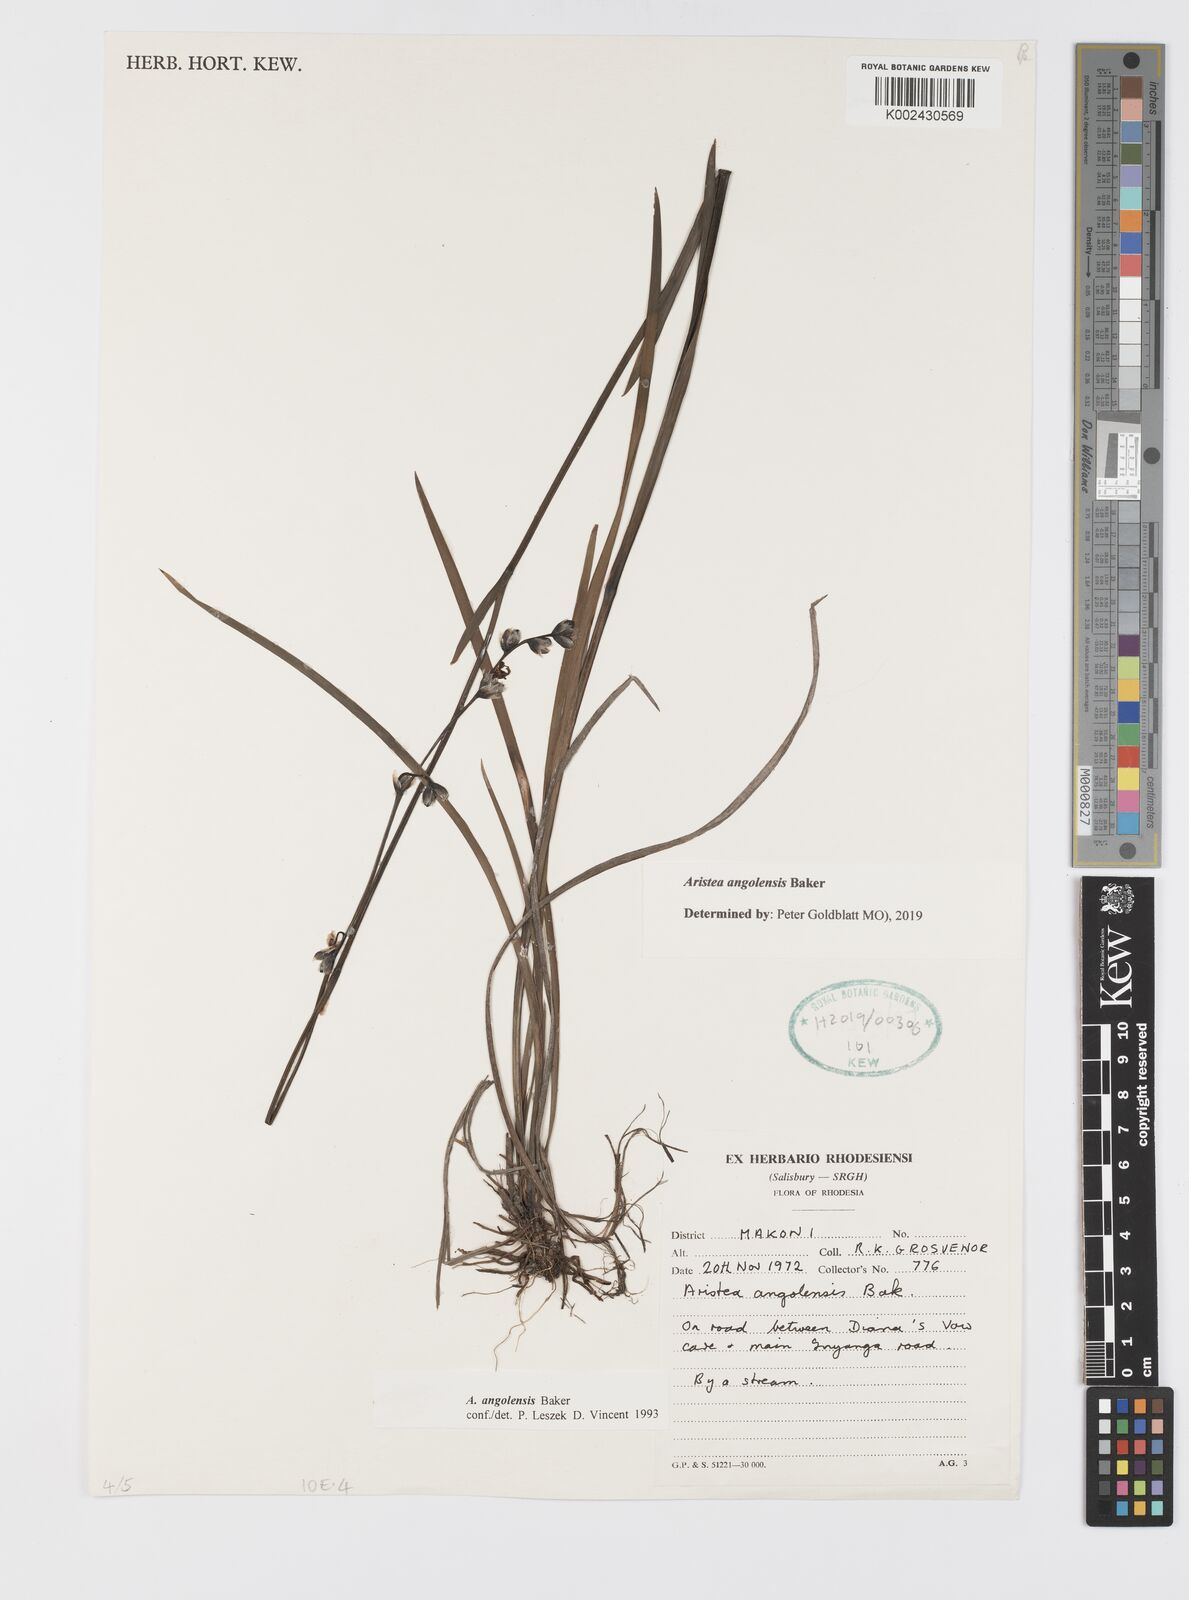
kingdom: Plantae
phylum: Tracheophyta
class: Liliopsida
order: Asparagales
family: Iridaceae
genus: Aristea
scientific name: Aristea angolensis
